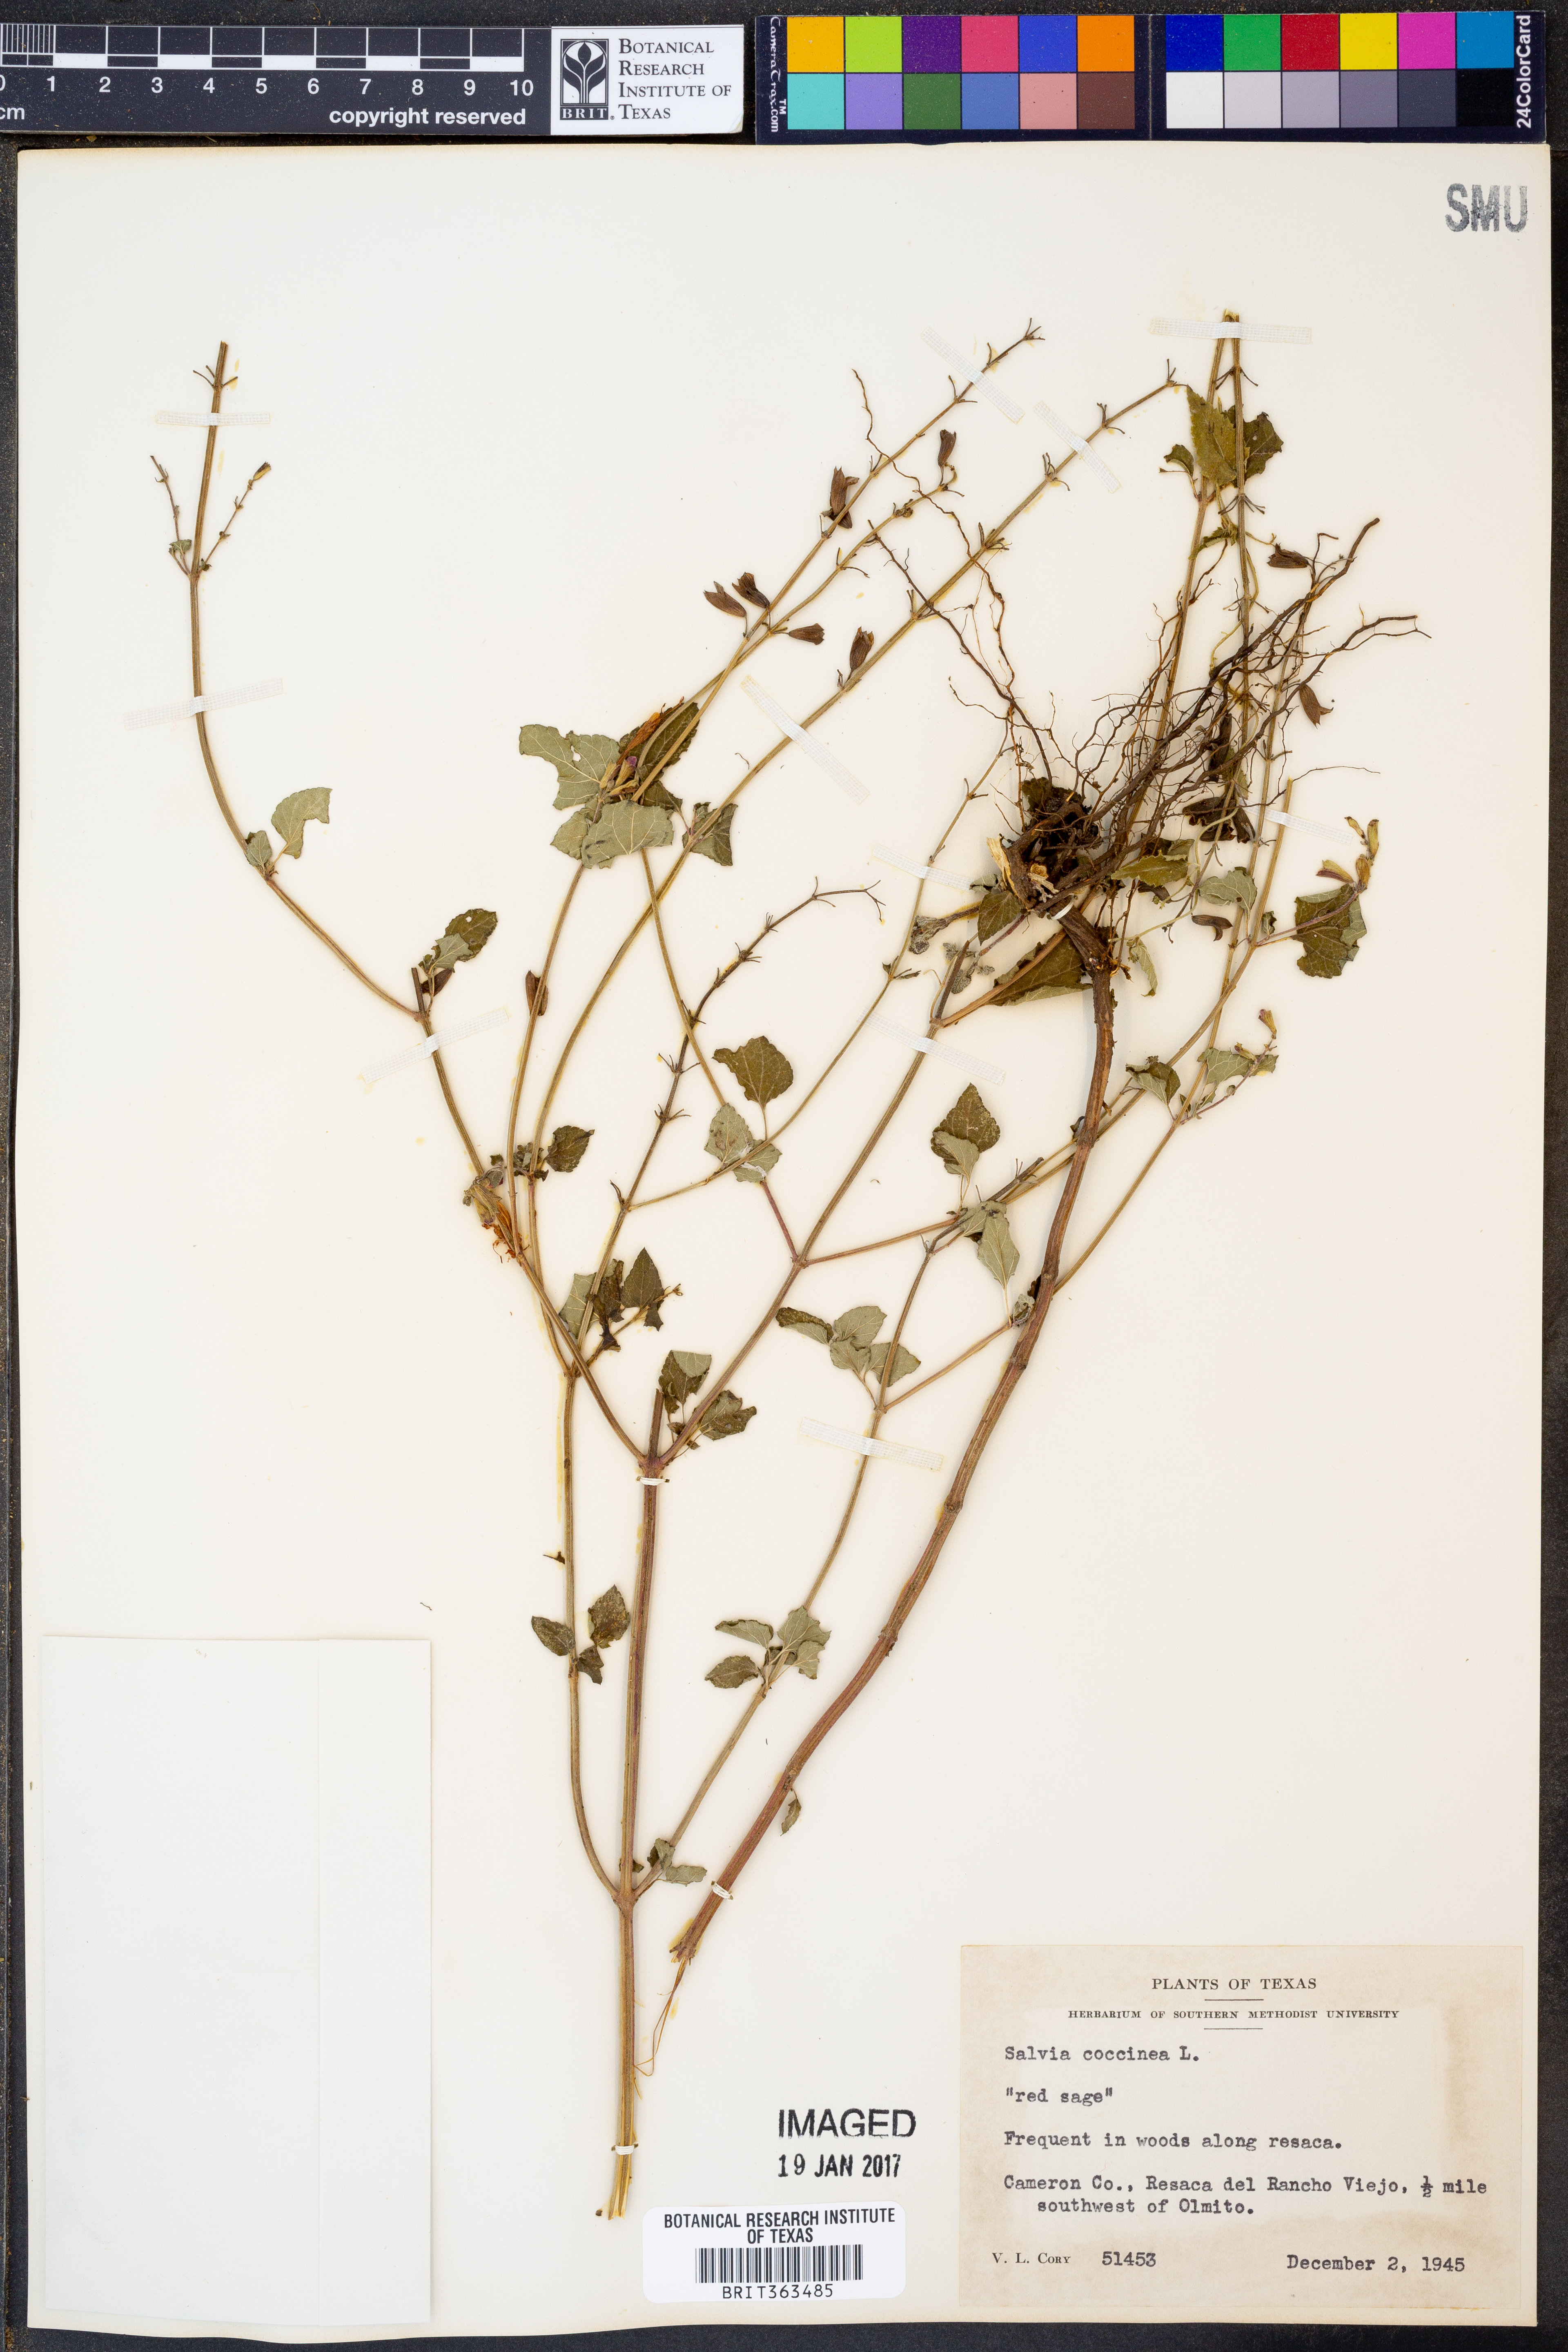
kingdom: Plantae
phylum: Tracheophyta
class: Magnoliopsida
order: Lamiales
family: Lamiaceae
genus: Salvia
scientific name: Salvia coccinea
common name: Blood sage
